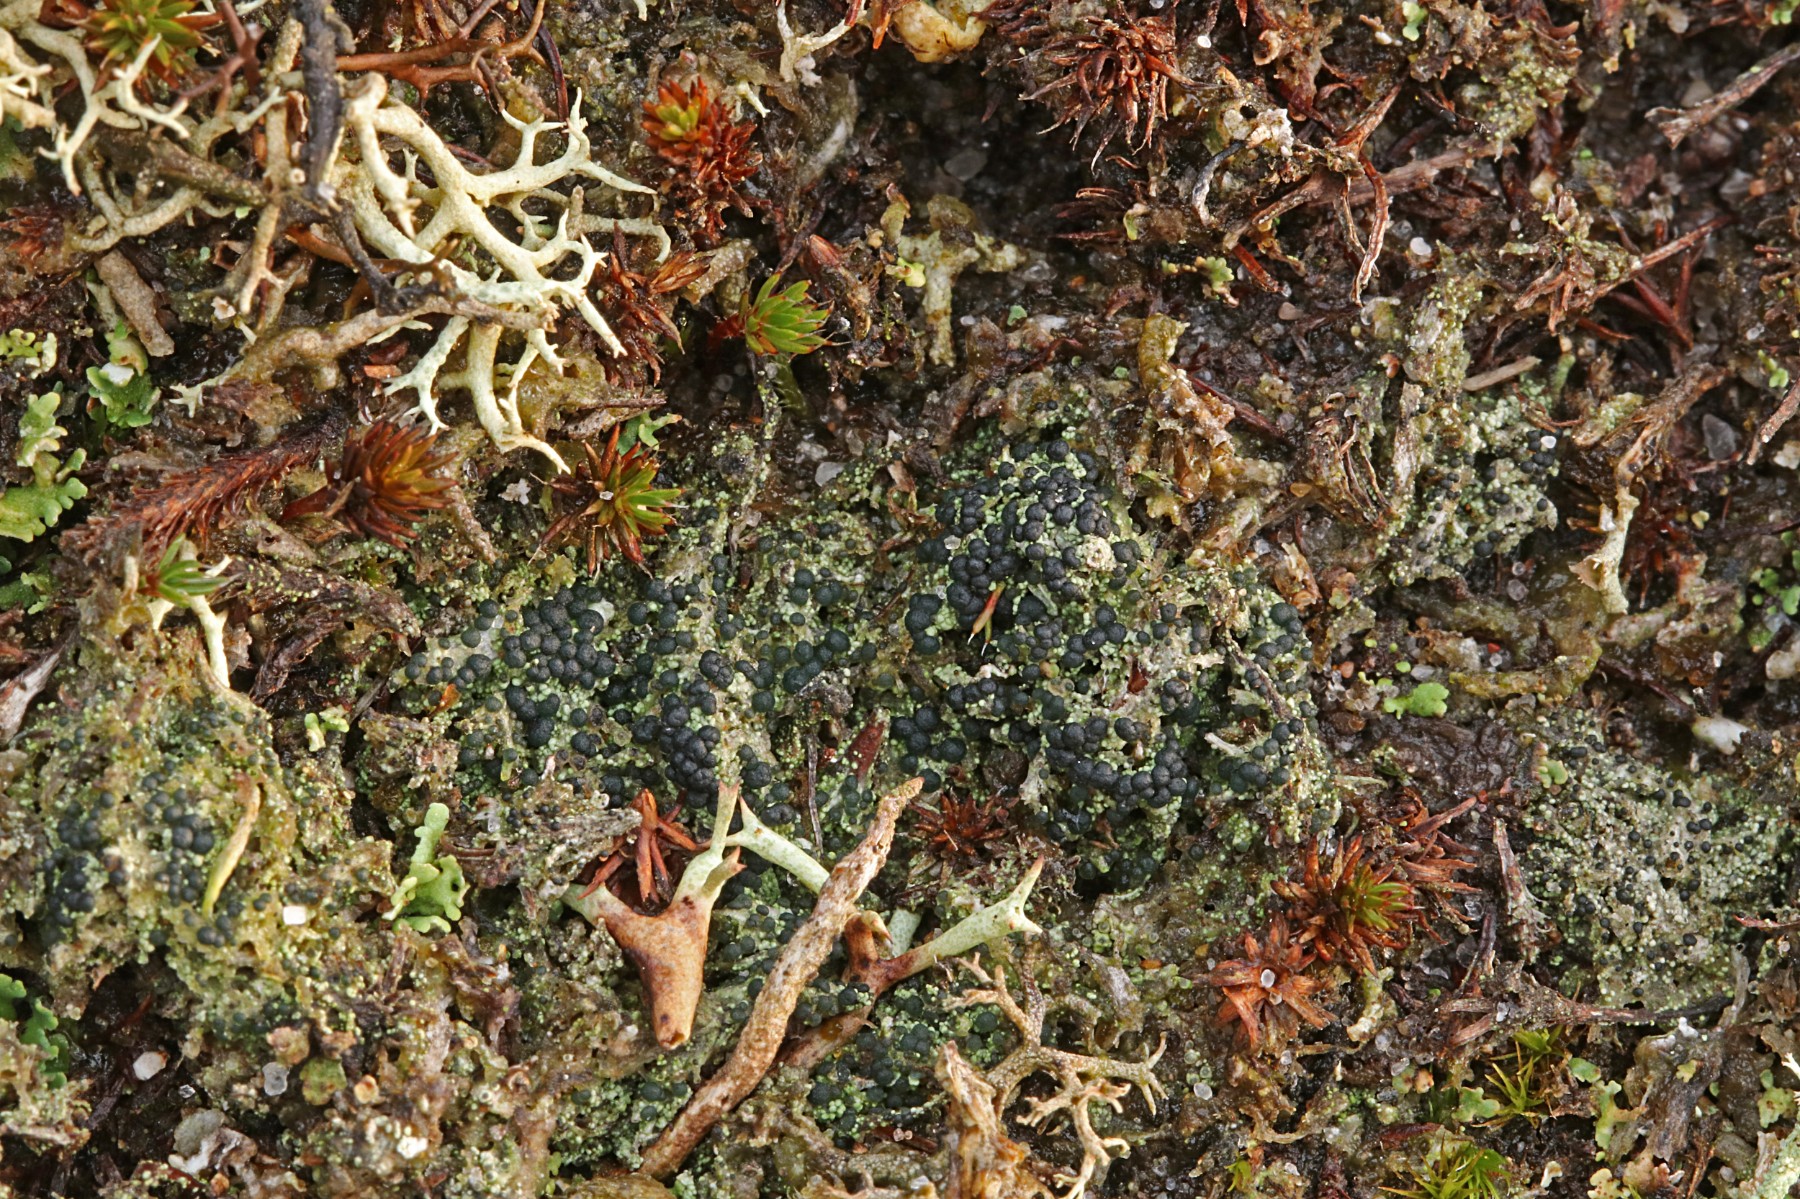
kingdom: Fungi
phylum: Ascomycota
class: Lecanoromycetes
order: Lecanorales
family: Byssolomataceae
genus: Micarea
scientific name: Micarea lignaria
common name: tørve-knaplav
